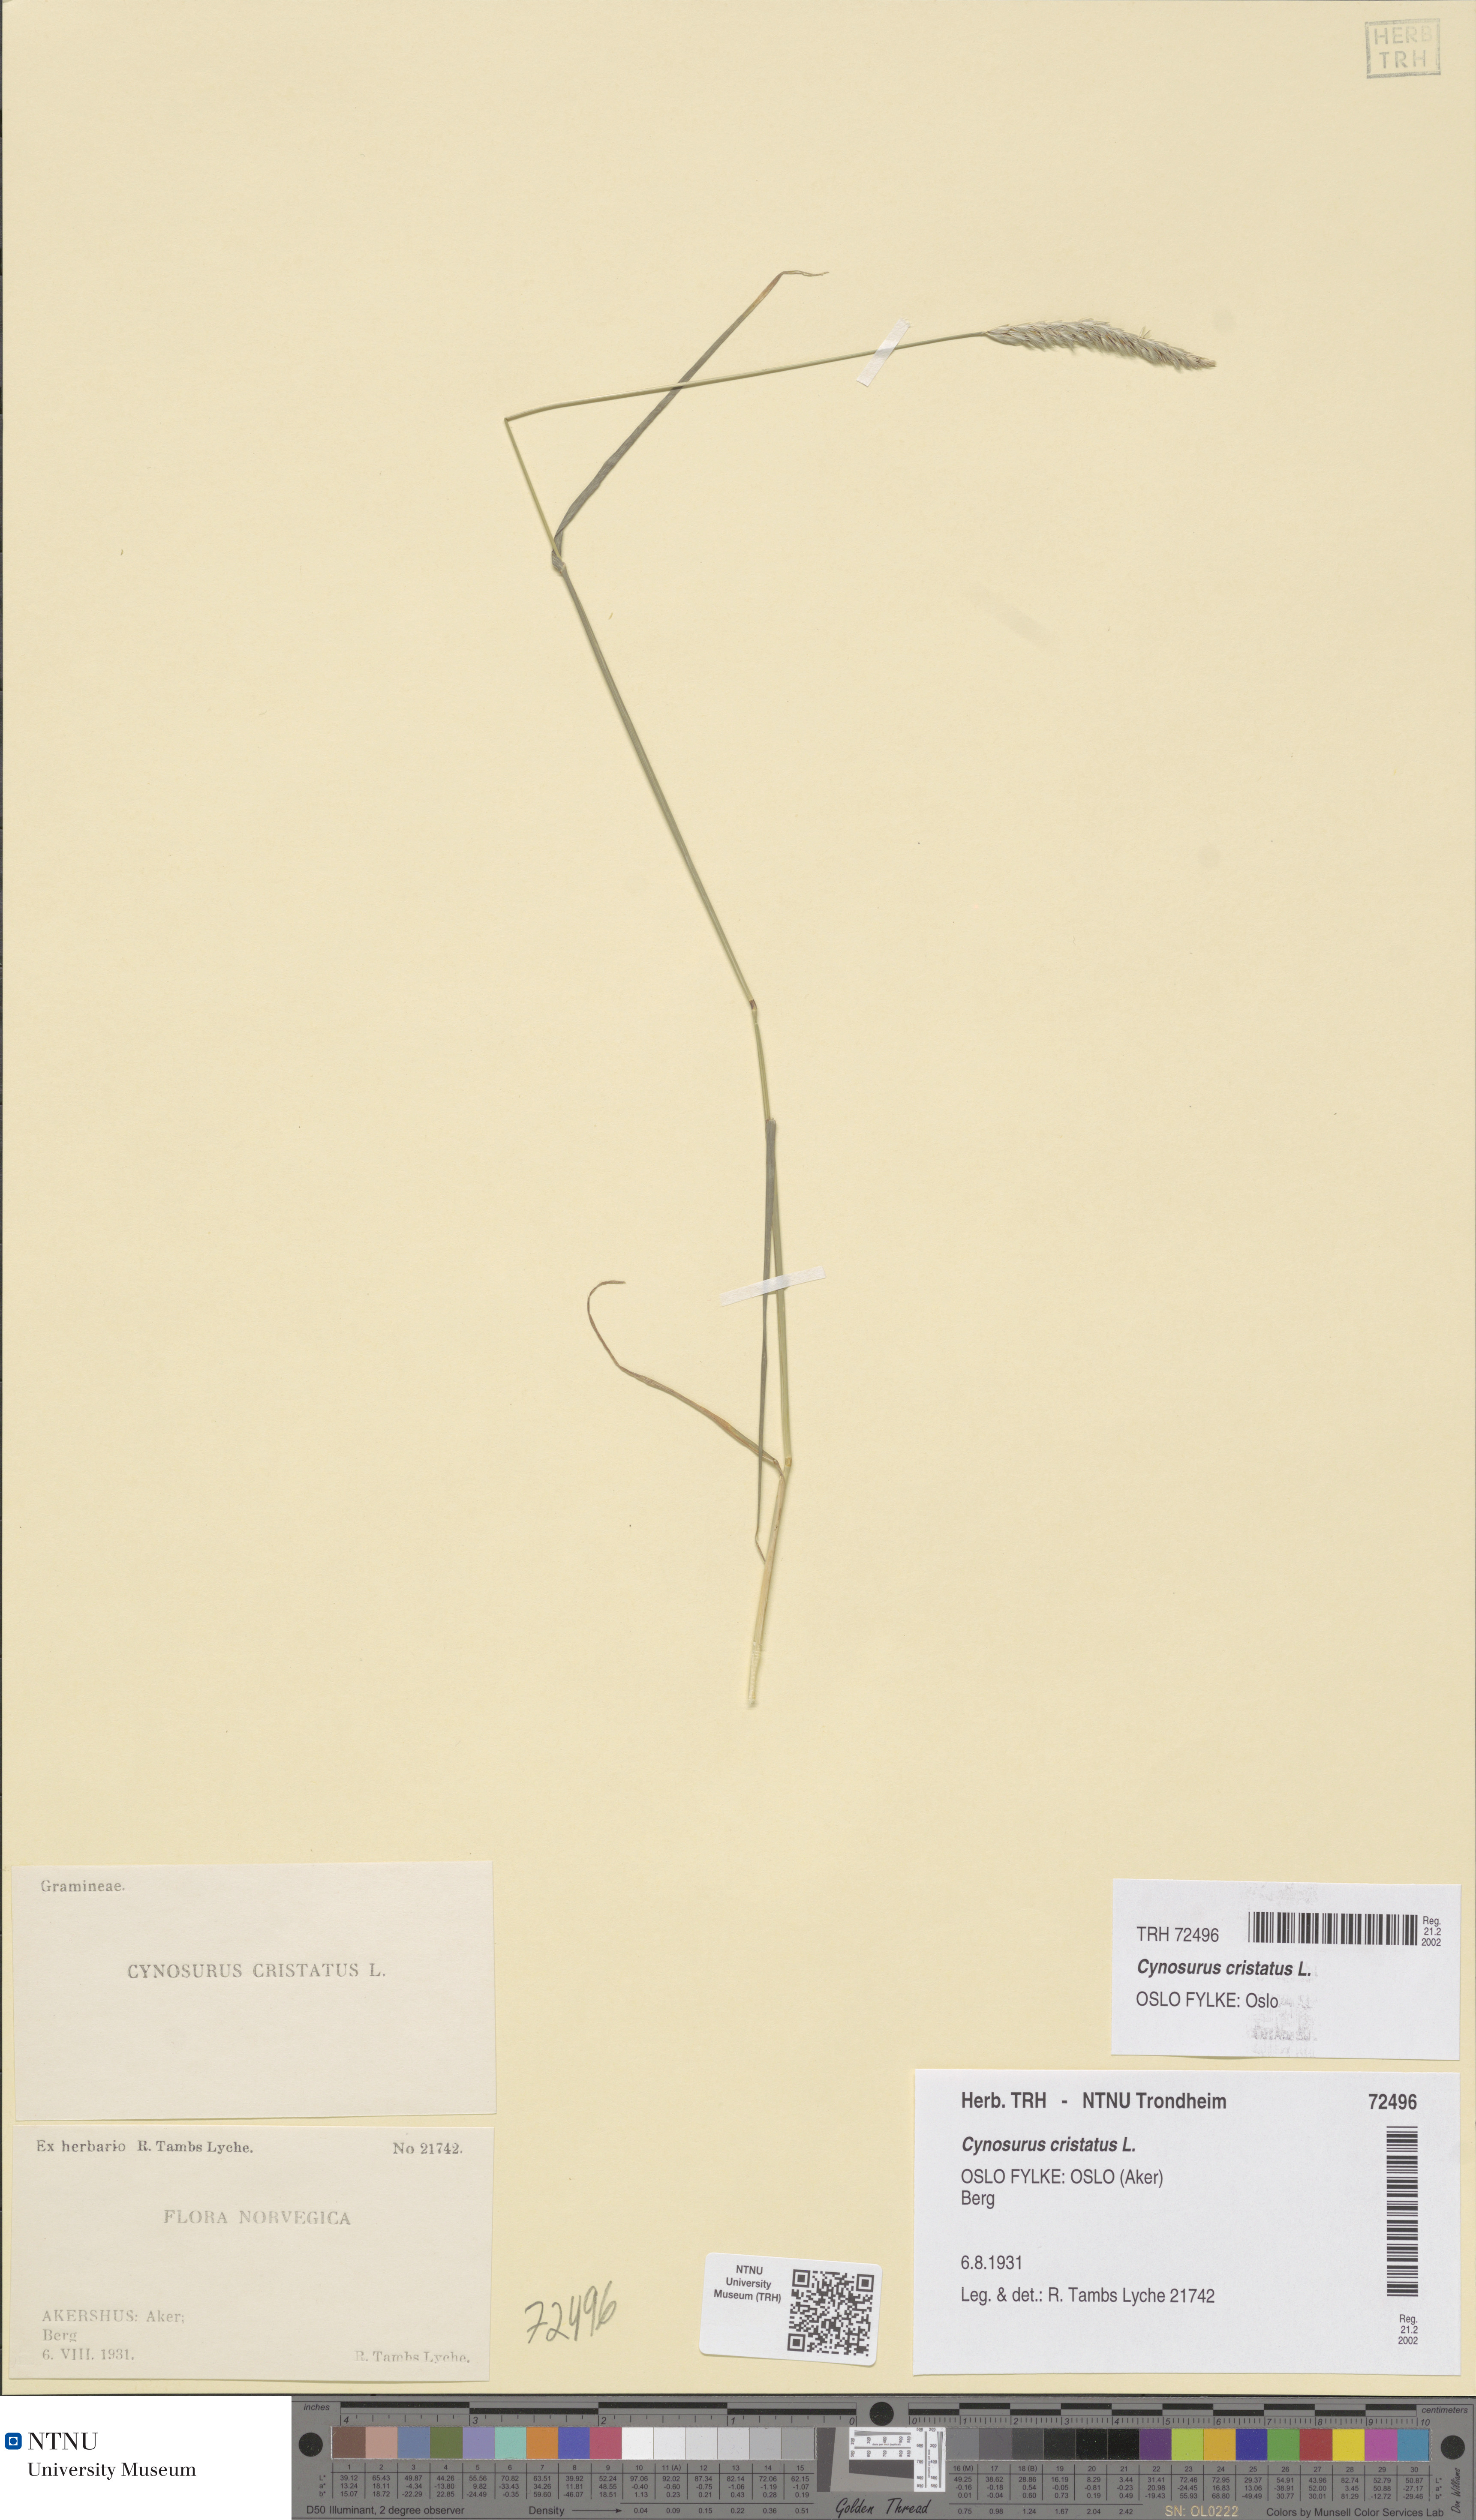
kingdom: Plantae
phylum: Tracheophyta
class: Liliopsida
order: Poales
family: Poaceae
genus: Cynosurus
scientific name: Cynosurus cristatus
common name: Crested dog's-tail
